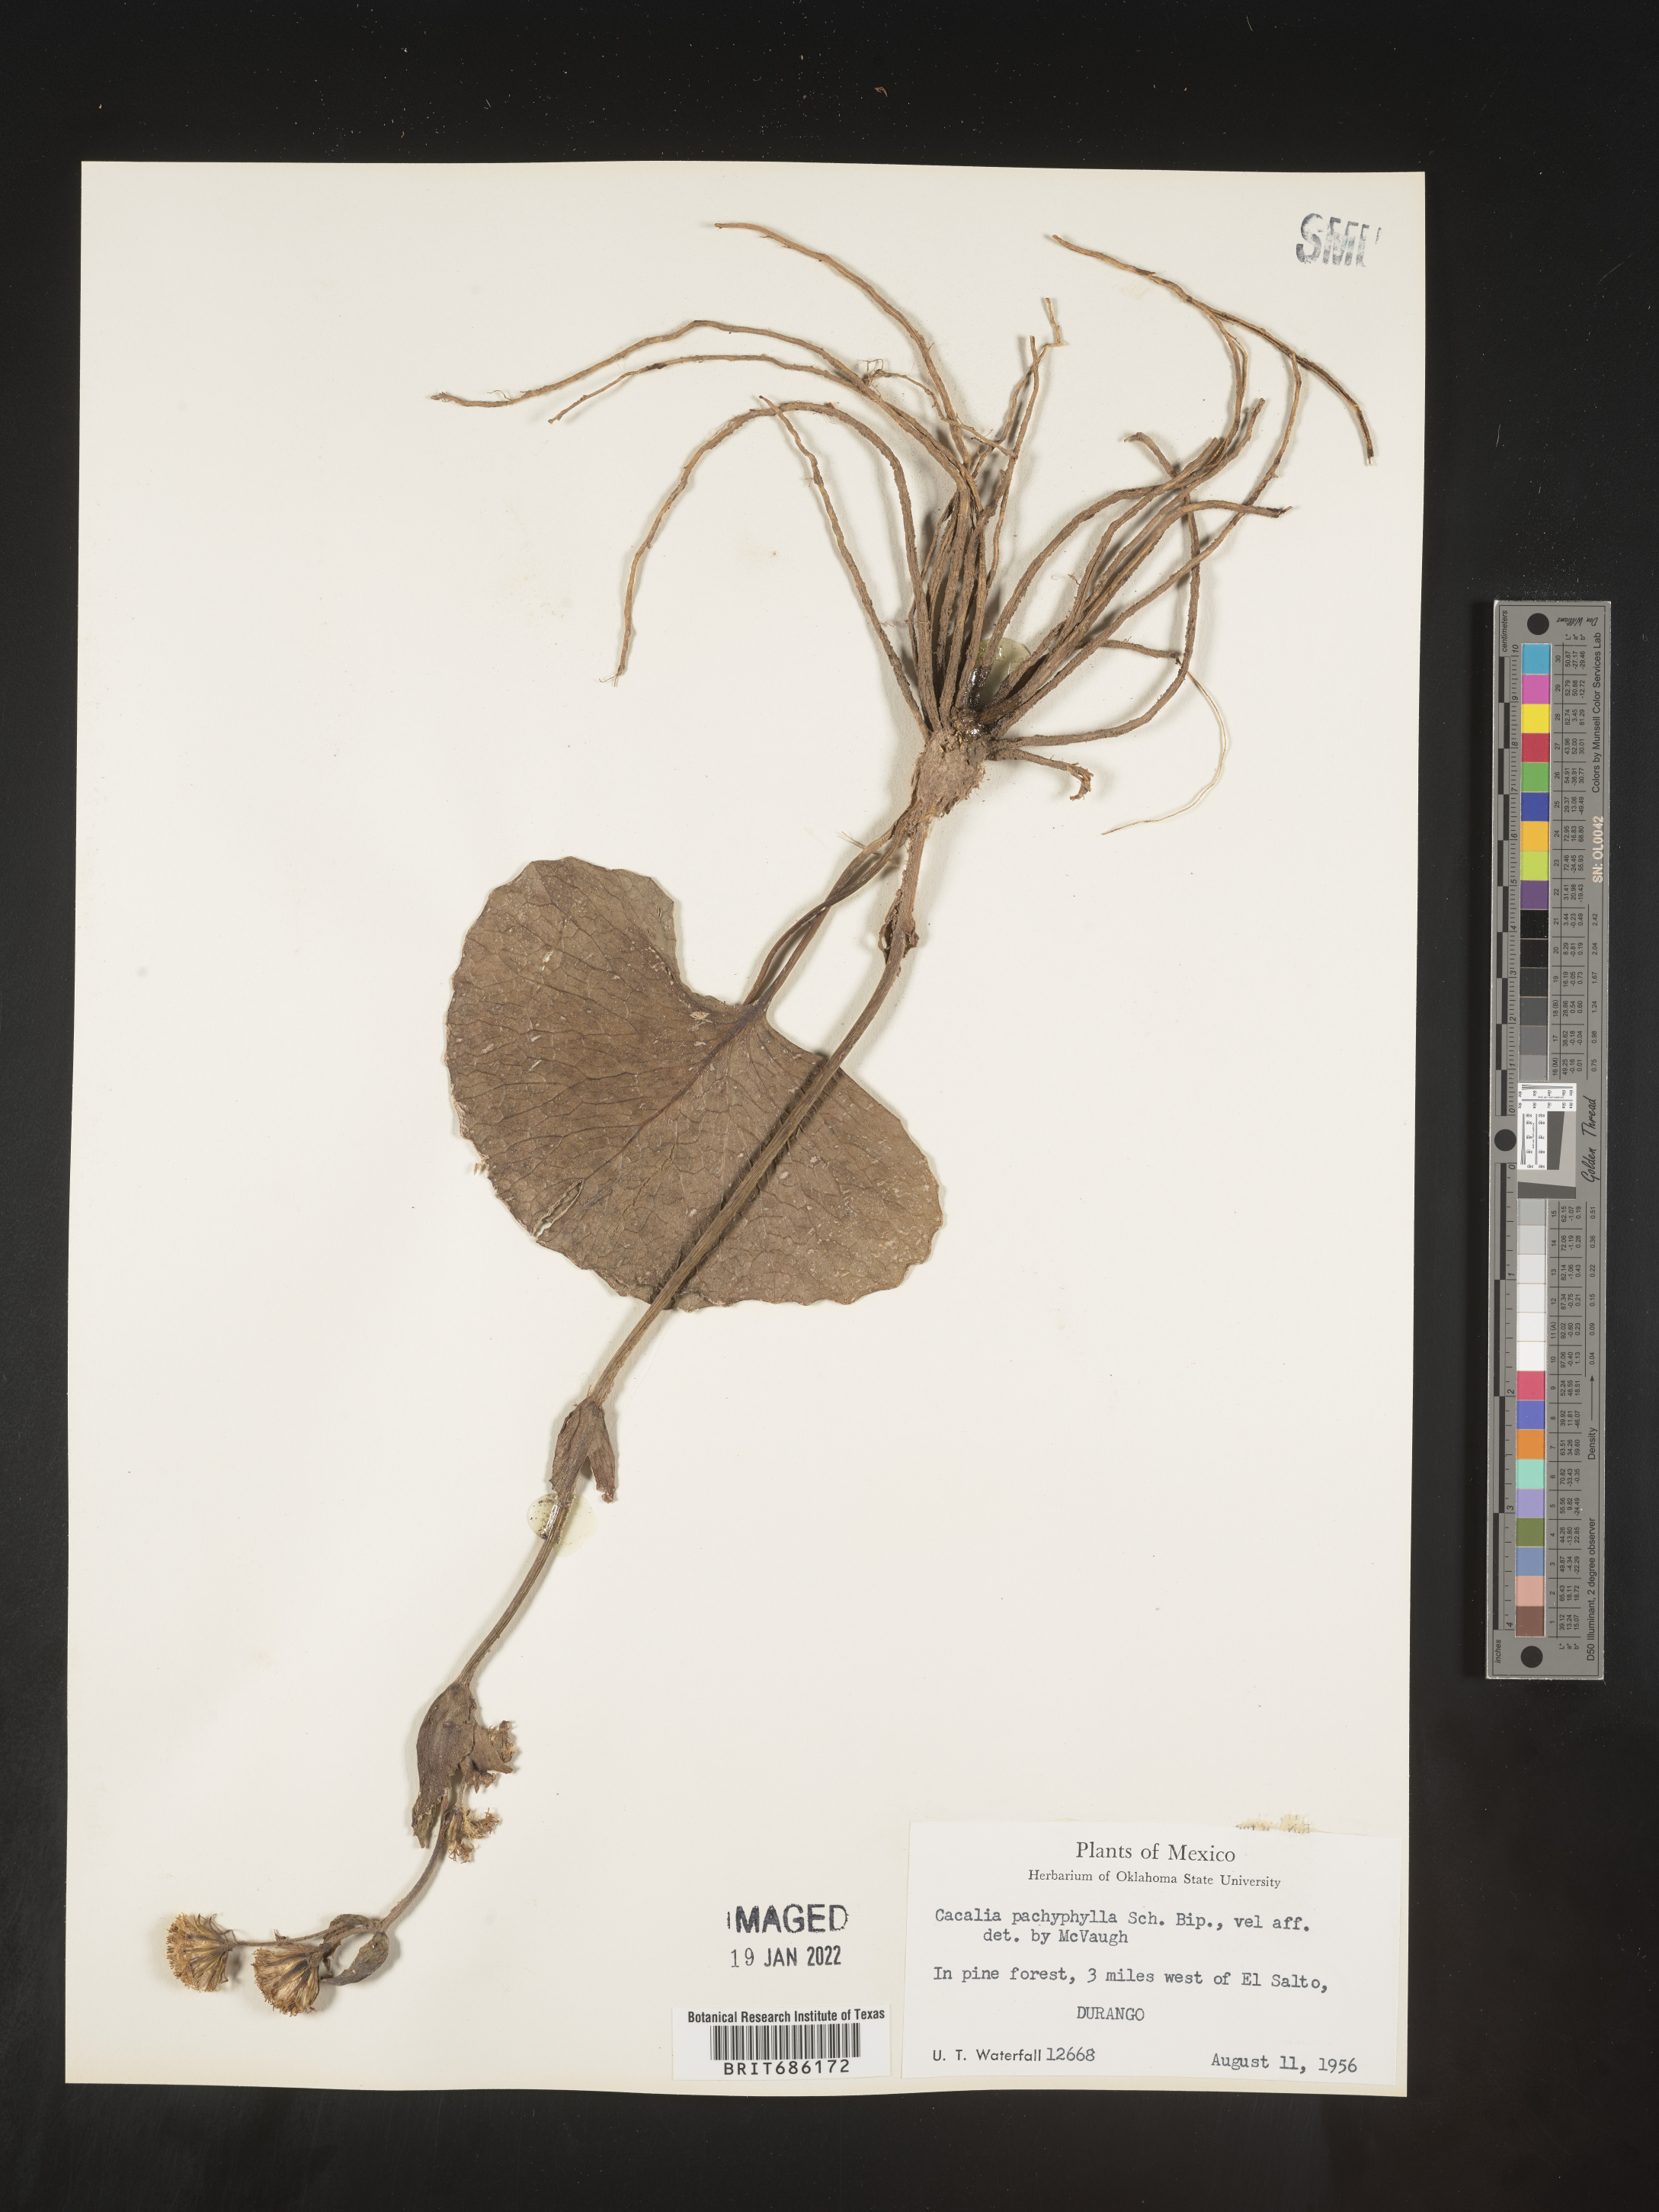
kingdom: Plantae
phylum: Tracheophyta
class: Magnoliopsida
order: Asterales
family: Asteraceae
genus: Cacalia
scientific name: Cacalia
